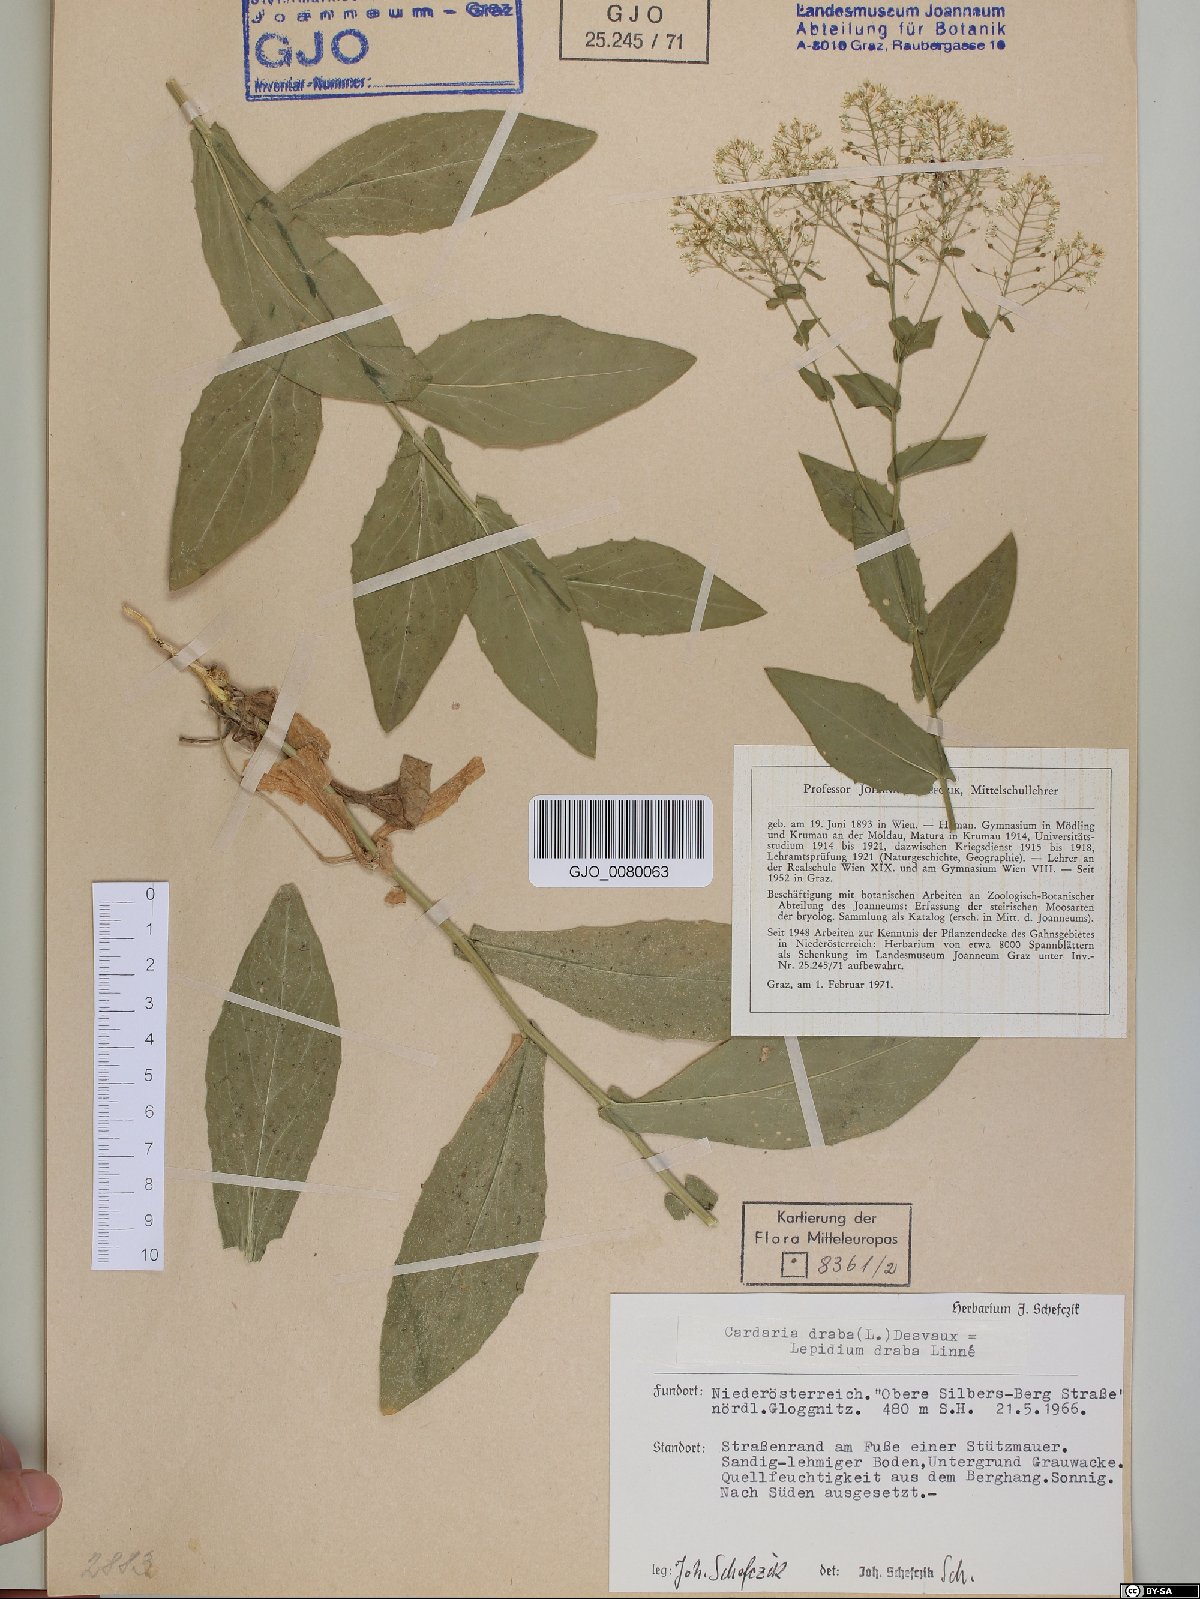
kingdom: Plantae
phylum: Tracheophyta
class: Magnoliopsida
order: Brassicales
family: Brassicaceae
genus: Lepidium
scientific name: Lepidium draba
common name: Hoary cress
